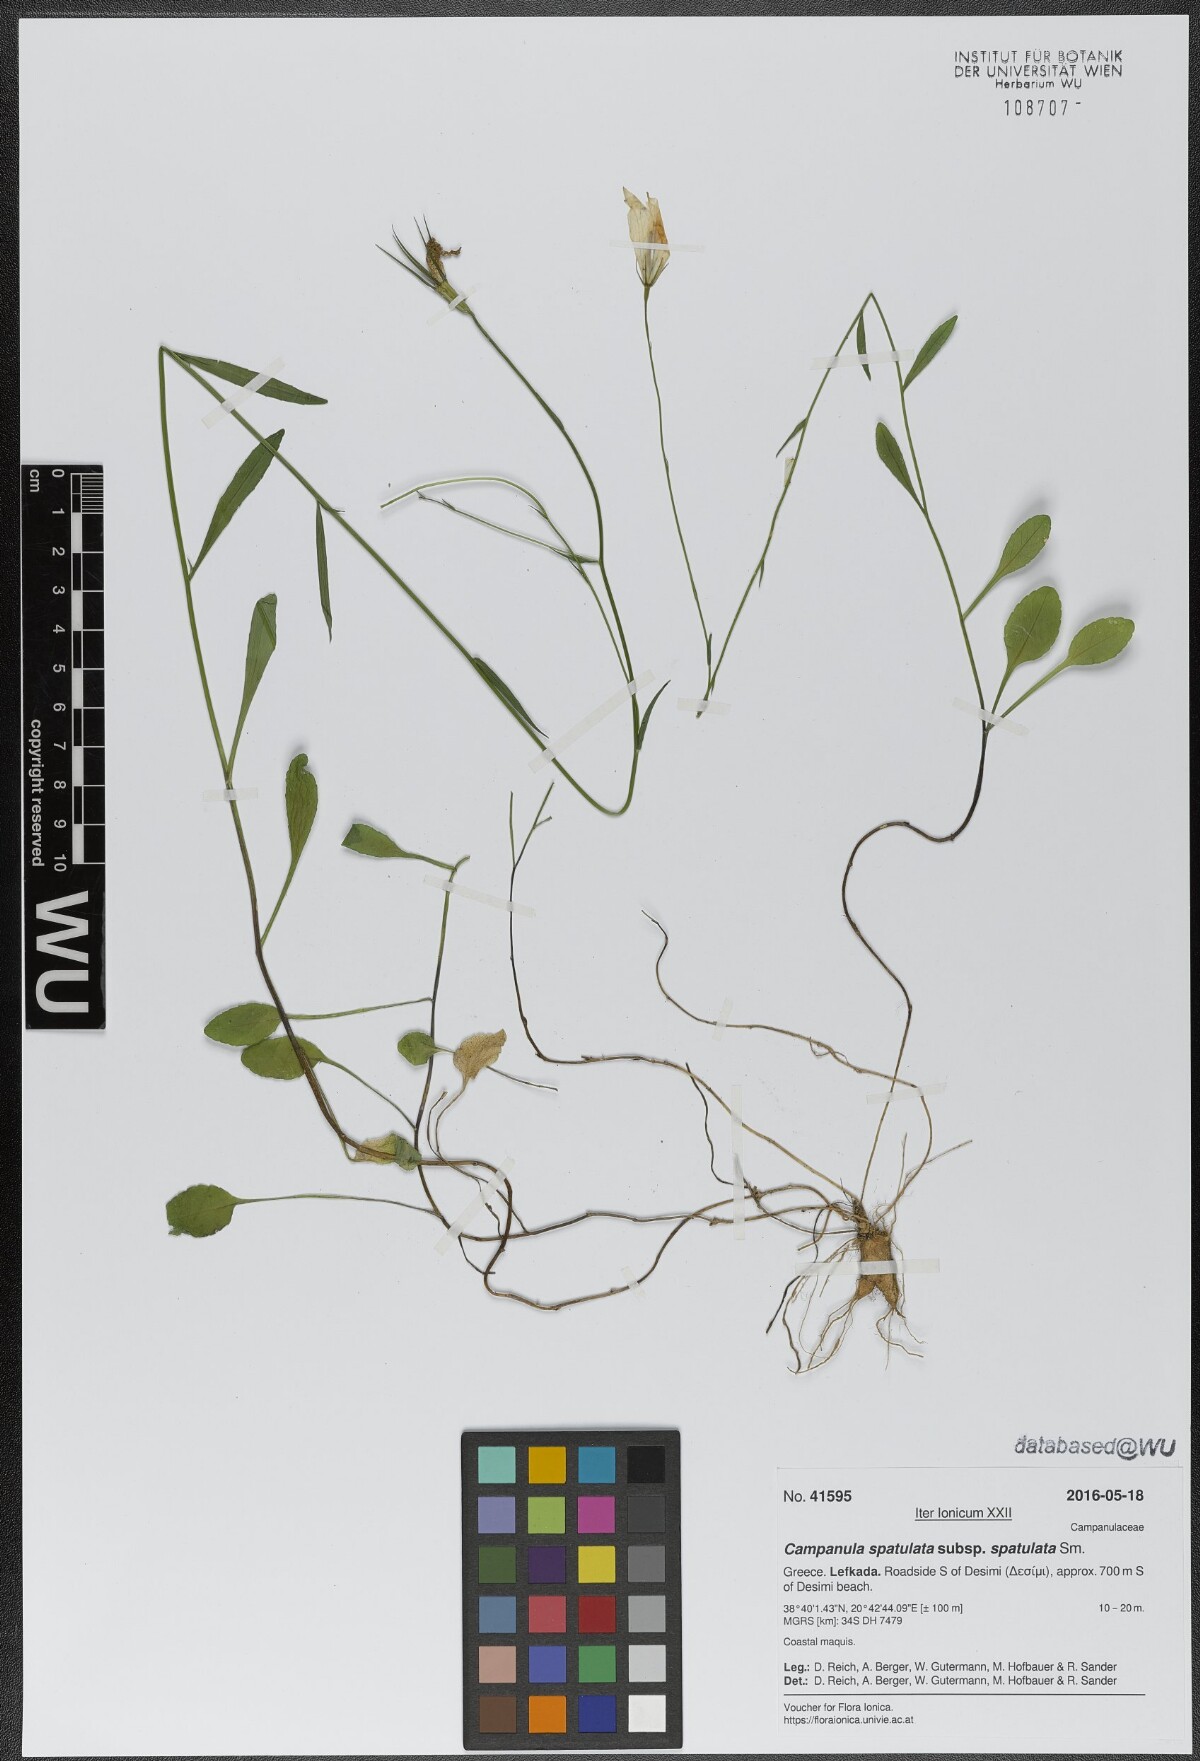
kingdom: Plantae
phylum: Tracheophyta
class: Magnoliopsida
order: Asterales
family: Campanulaceae
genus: Campanula
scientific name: Campanula spatulata
